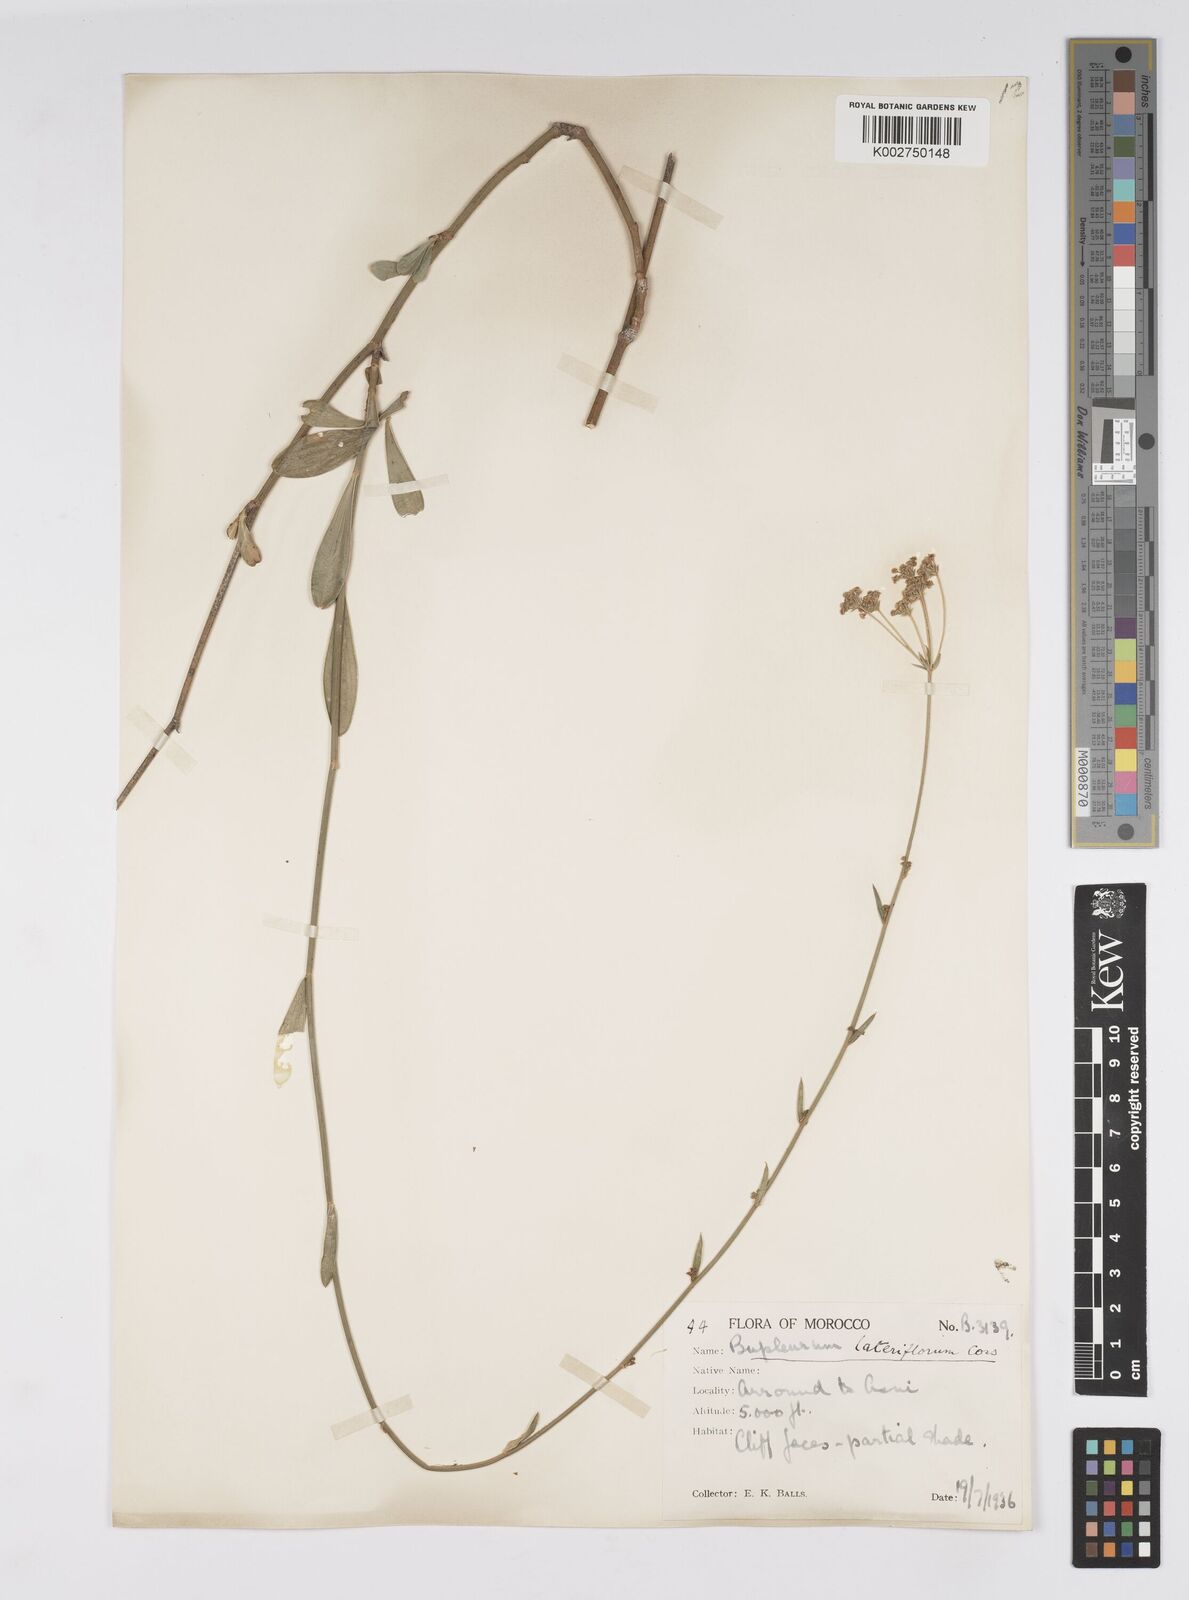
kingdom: Plantae
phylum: Tracheophyta
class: Magnoliopsida
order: Apiales
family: Apiaceae
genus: Bupleurum
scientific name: Bupleurum lateriflorum
